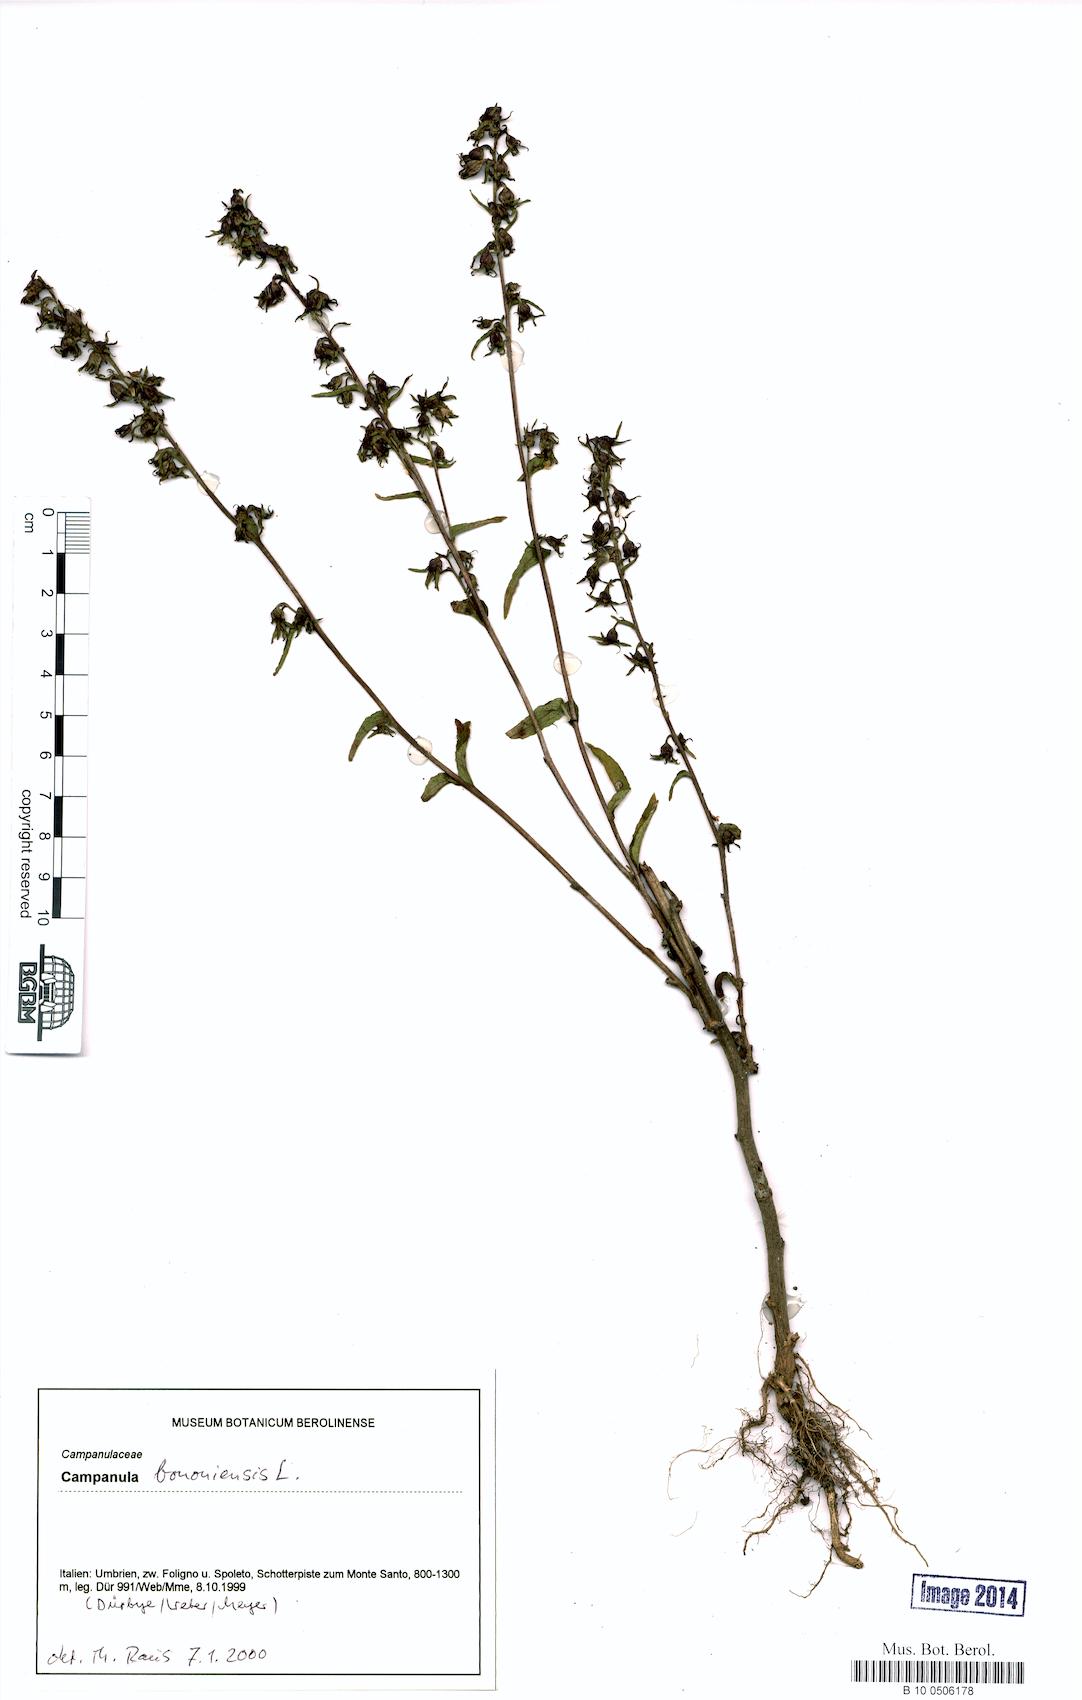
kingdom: Plantae
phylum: Tracheophyta
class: Magnoliopsida
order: Asterales
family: Campanulaceae
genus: Campanula
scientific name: Campanula bononiensis
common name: Pale bellflower
